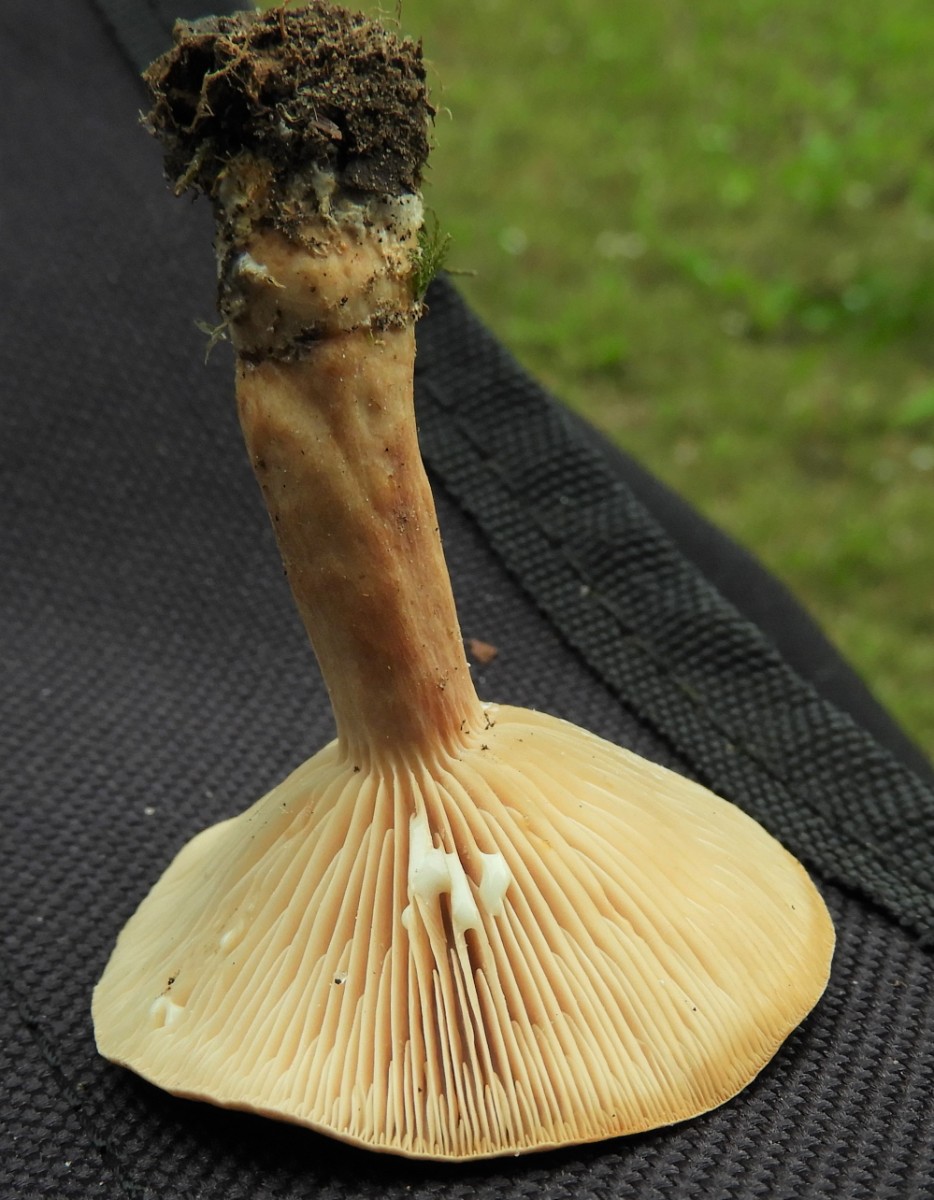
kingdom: Fungi
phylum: Basidiomycota
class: Agaricomycetes
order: Russulales
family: Russulaceae
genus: Lactarius
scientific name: Lactarius subdulcis
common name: sødlig mælkehat
